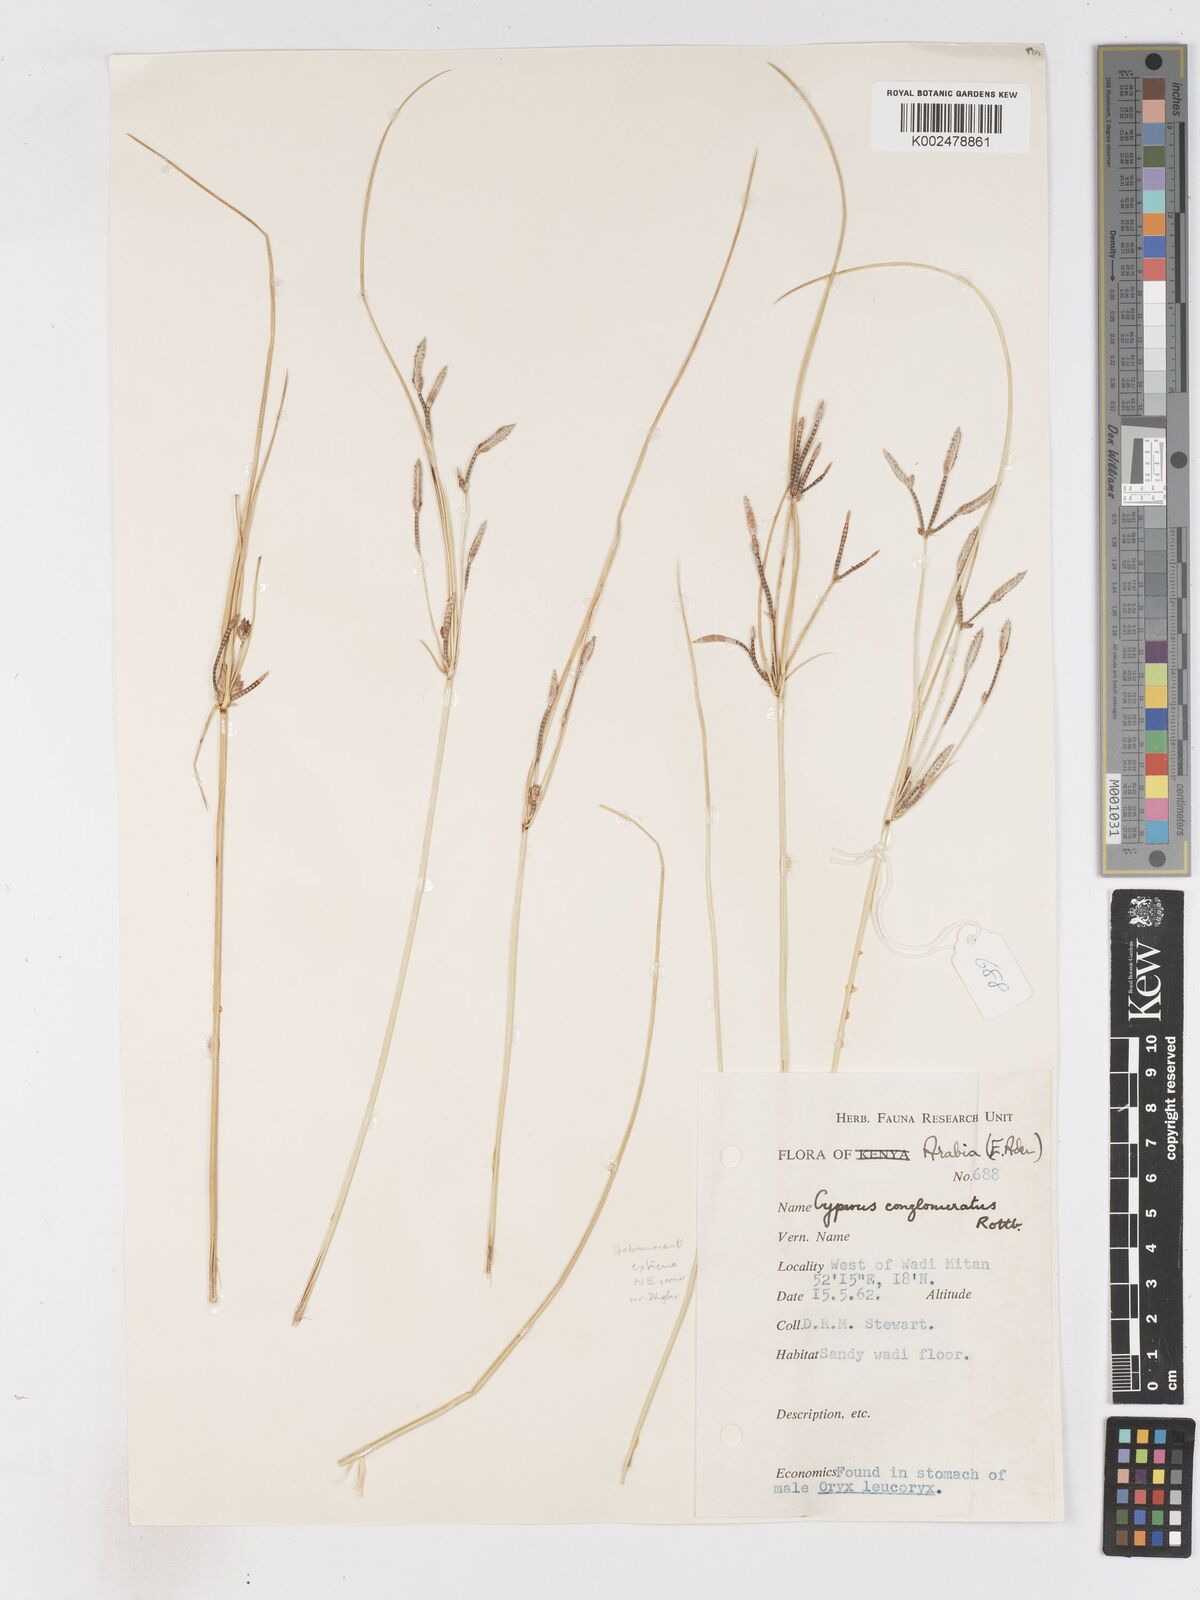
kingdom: Plantae
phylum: Tracheophyta
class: Liliopsida
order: Poales
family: Cyperaceae
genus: Cyperus
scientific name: Cyperus aucheri
